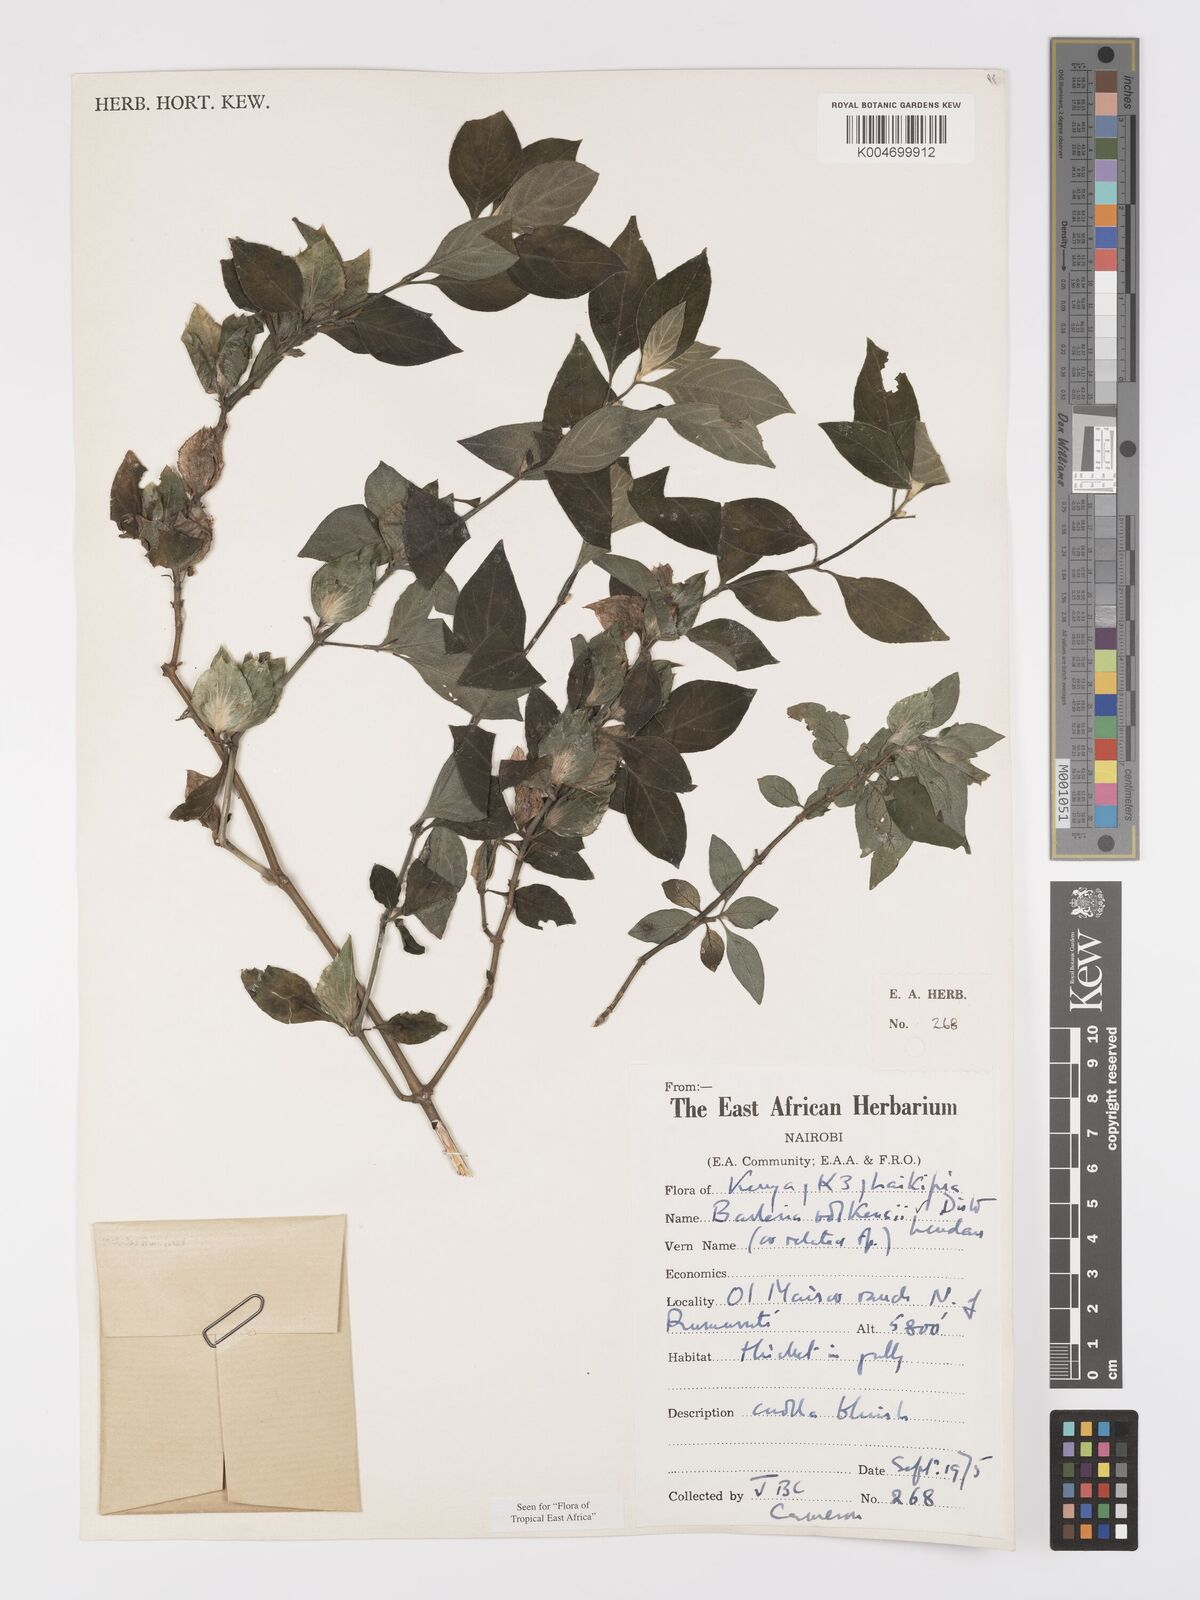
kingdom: Plantae
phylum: Tracheophyta
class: Magnoliopsida
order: Lamiales
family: Acanthaceae
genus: Barleria
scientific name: Barleria volkensii
